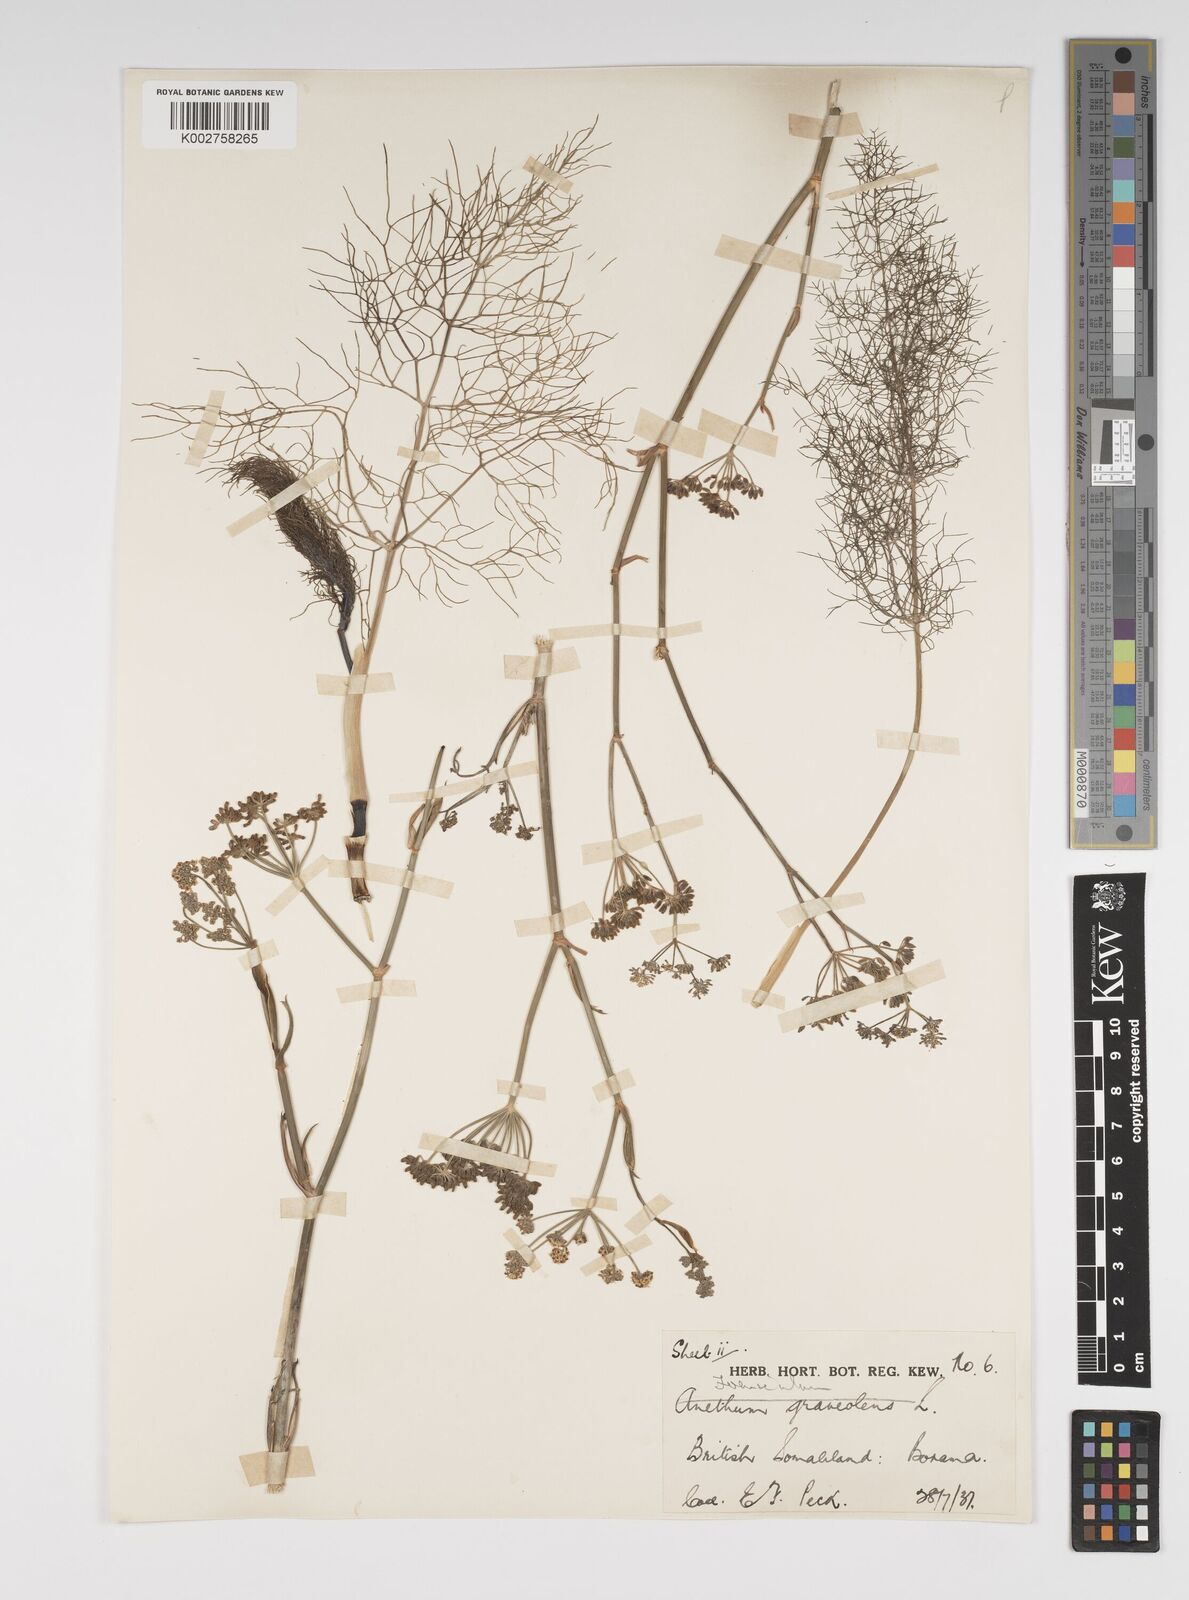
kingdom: Plantae
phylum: Tracheophyta
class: Magnoliopsida
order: Apiales
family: Apiaceae
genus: Foeniculum
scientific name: Foeniculum vulgare
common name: Fennel
